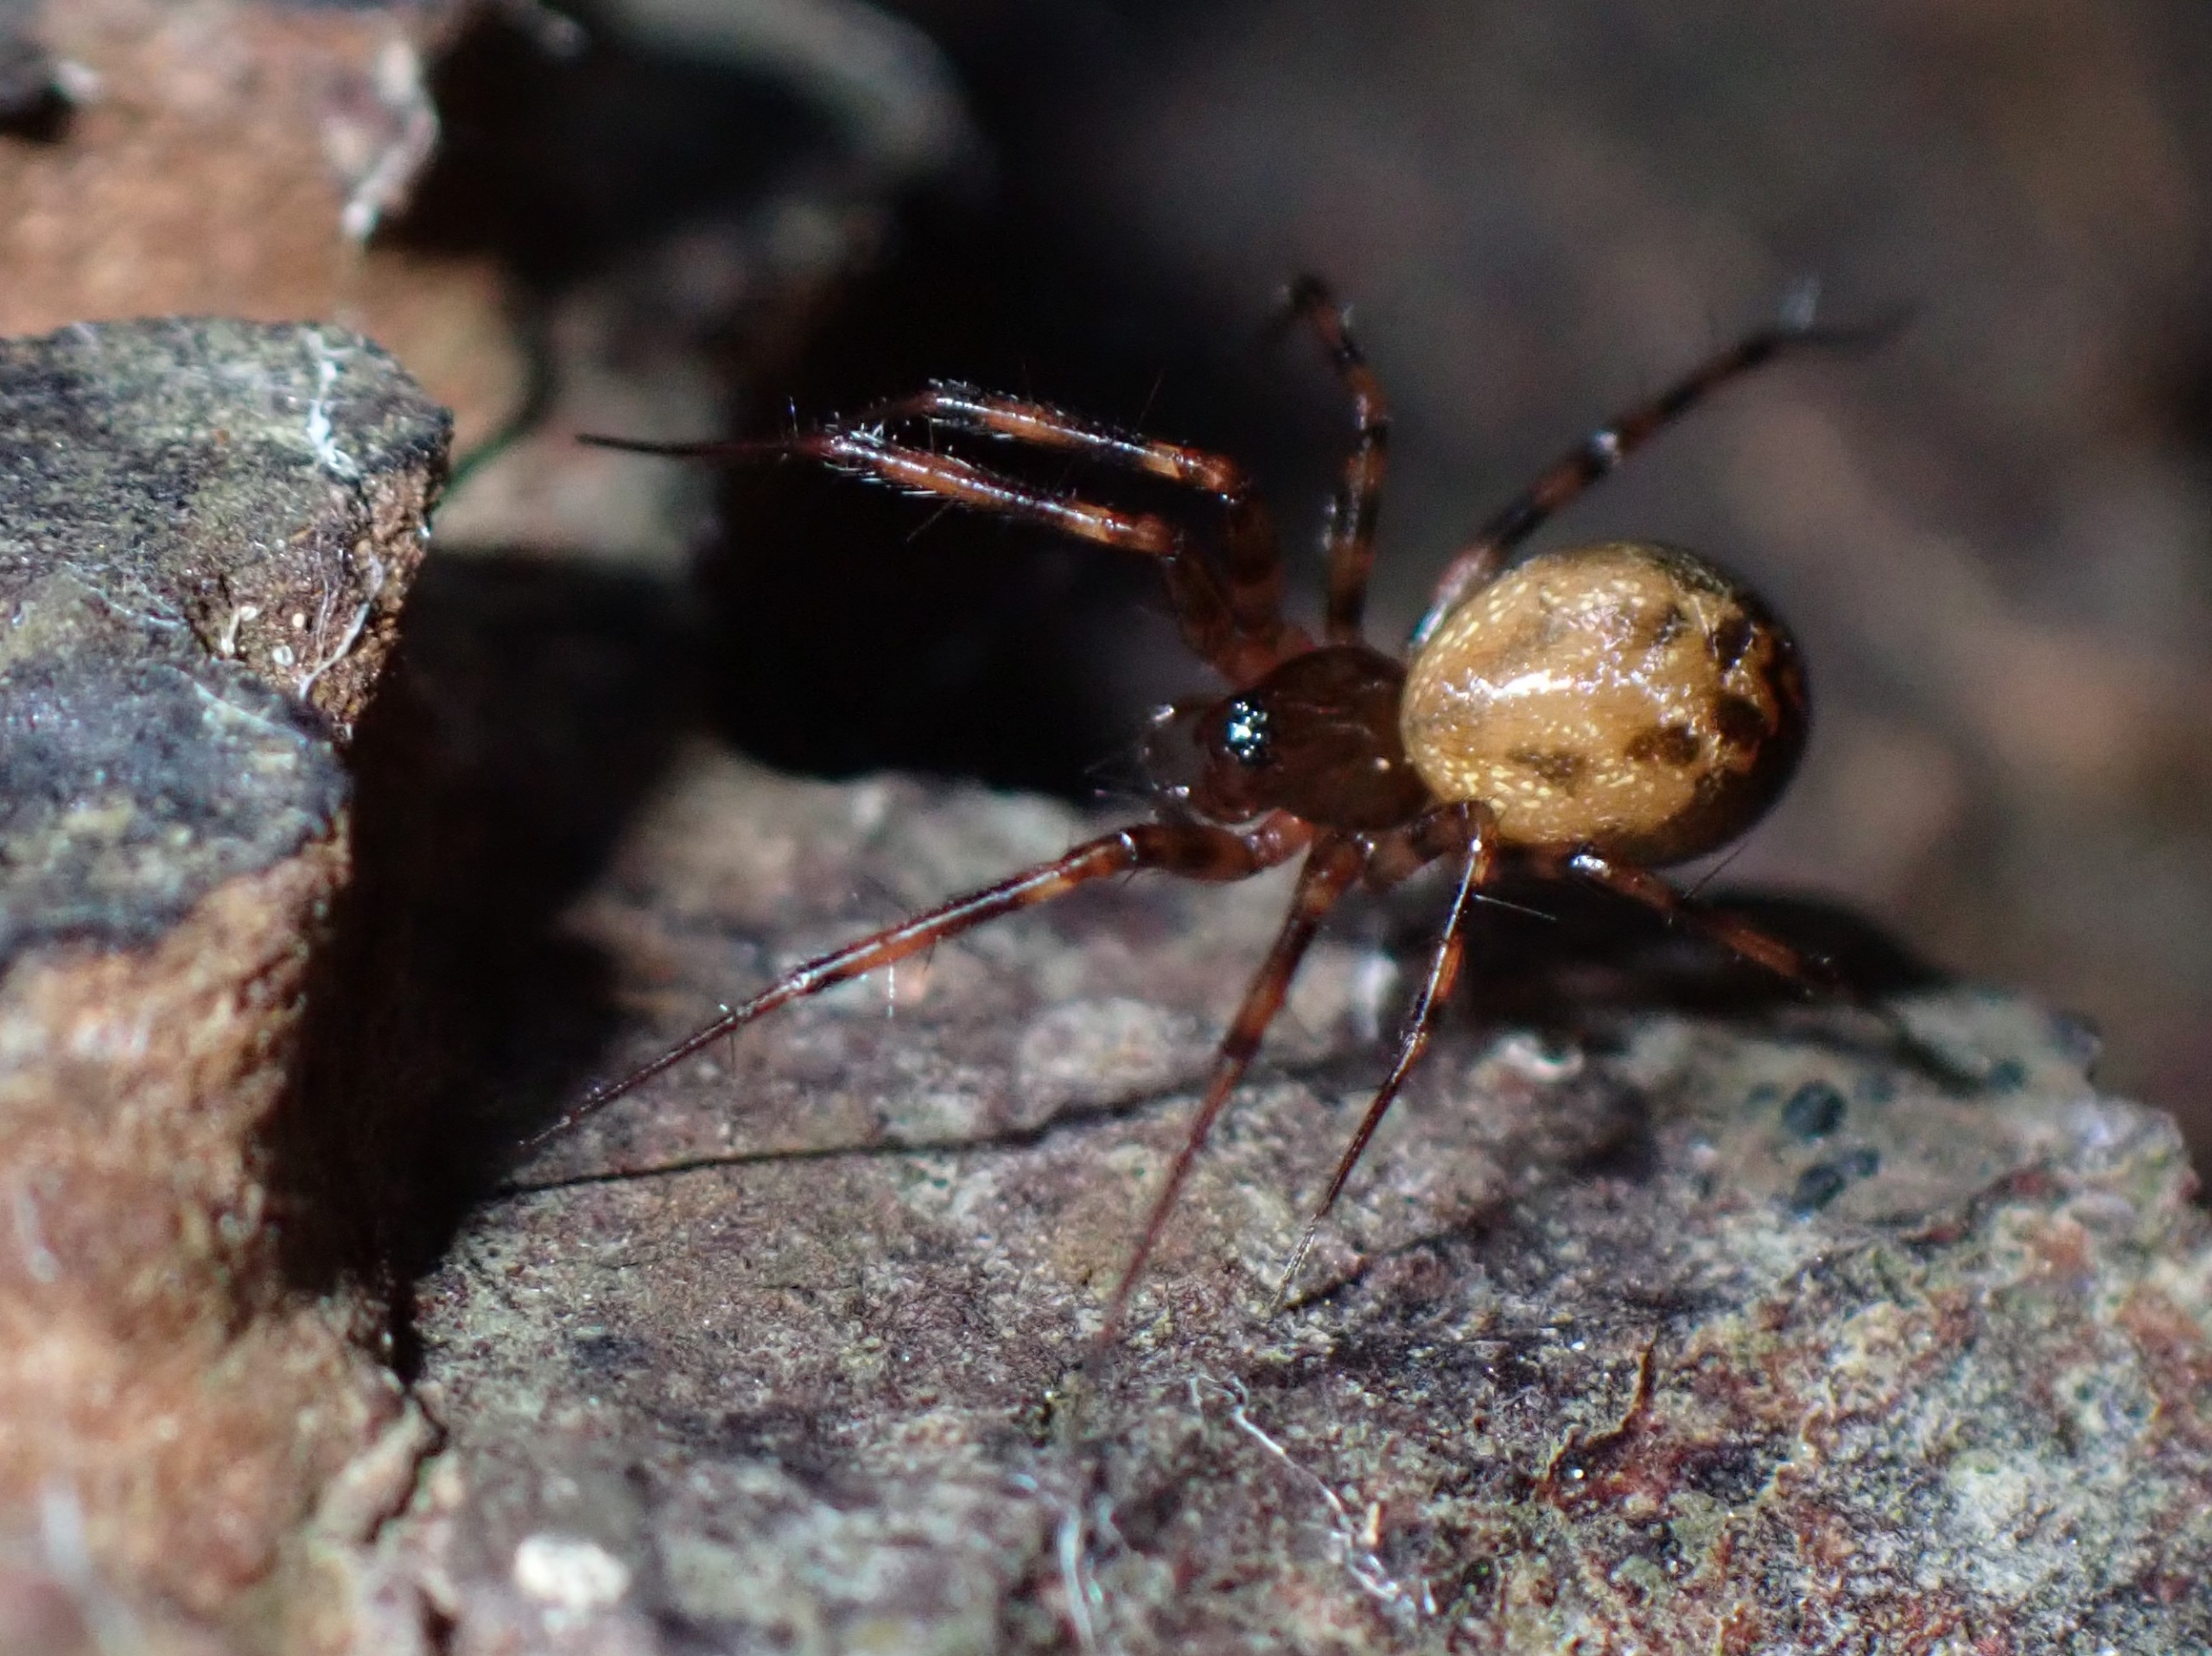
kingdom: Animalia
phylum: Arthropoda
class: Arachnida
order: Araneae
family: Linyphiidae
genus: Lepthyphantes
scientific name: Lepthyphantes minutus
